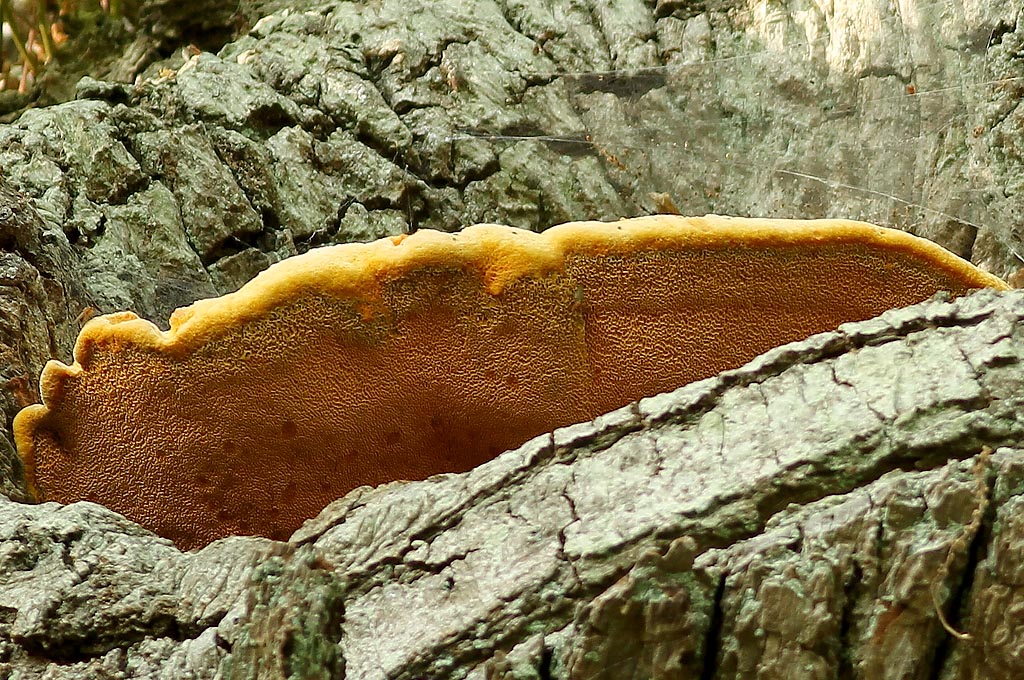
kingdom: Fungi
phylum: Basidiomycota
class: Agaricomycetes
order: Polyporales
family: Phanerochaetaceae
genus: Hapalopilus
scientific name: Hapalopilus croceus
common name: safrangul pragtporesvamp
